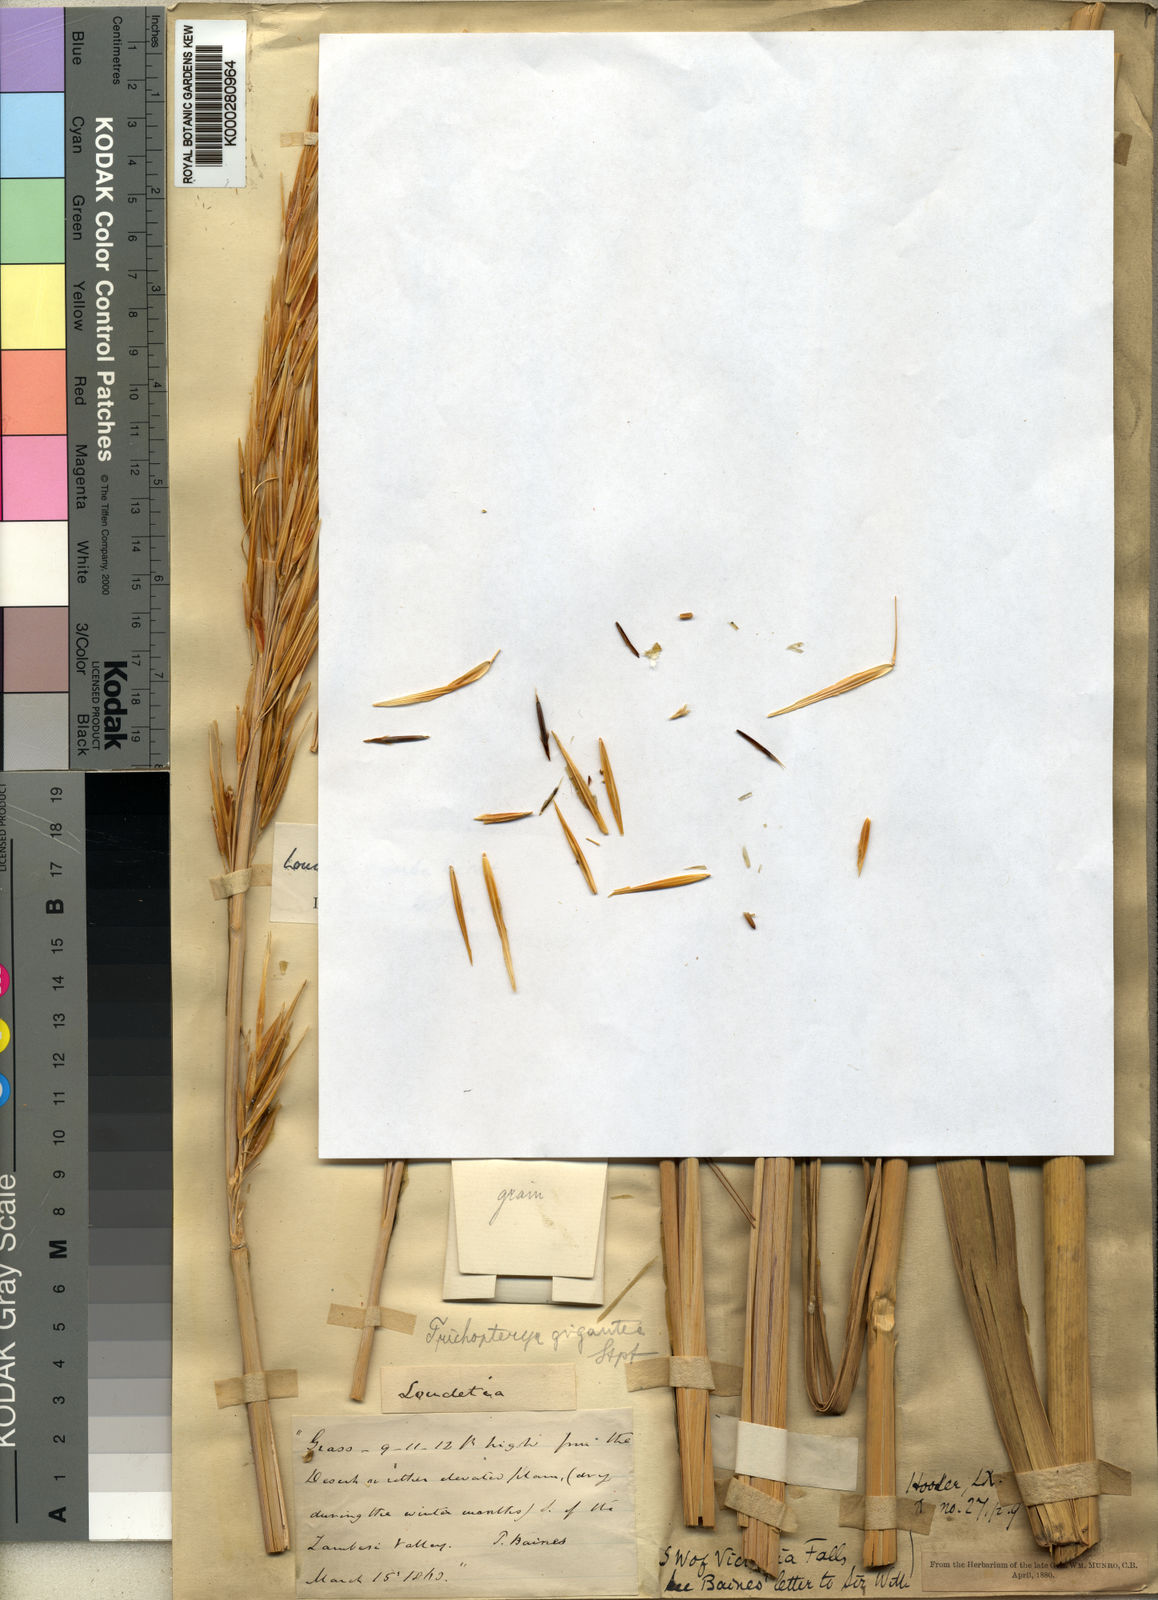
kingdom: Plantae
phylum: Tracheophyta
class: Liliopsida
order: Poales
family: Poaceae
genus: Tristachya
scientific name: Tristachya superba
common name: Giant trident grass
